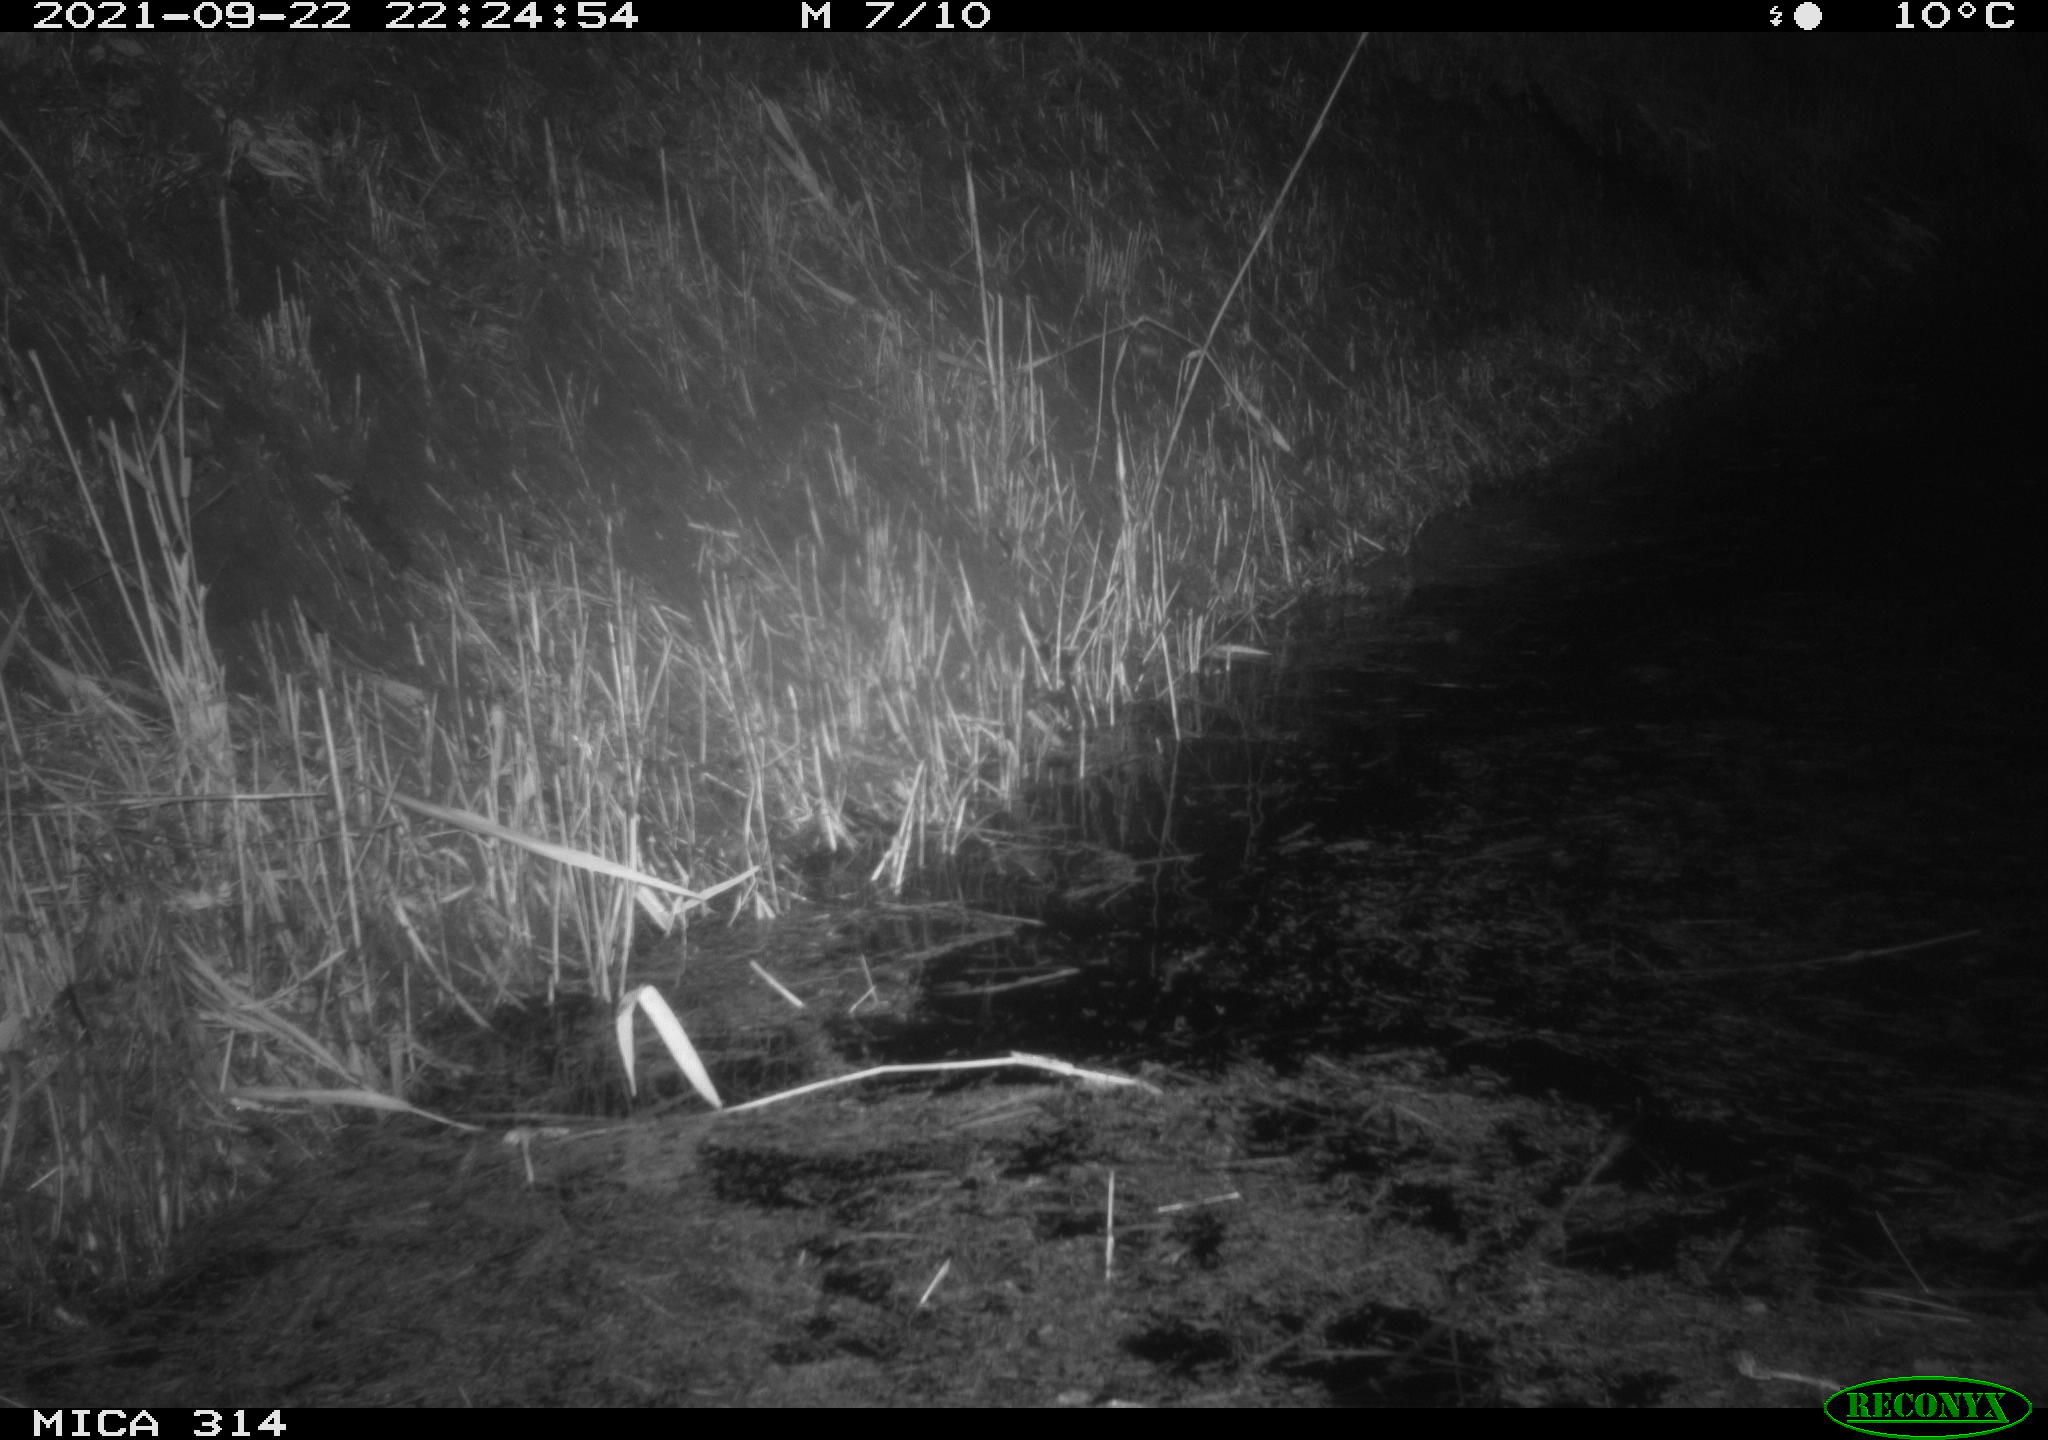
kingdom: Animalia
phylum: Chordata
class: Mammalia
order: Rodentia
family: Muridae
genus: Rattus
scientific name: Rattus norvegicus
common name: Brown rat
